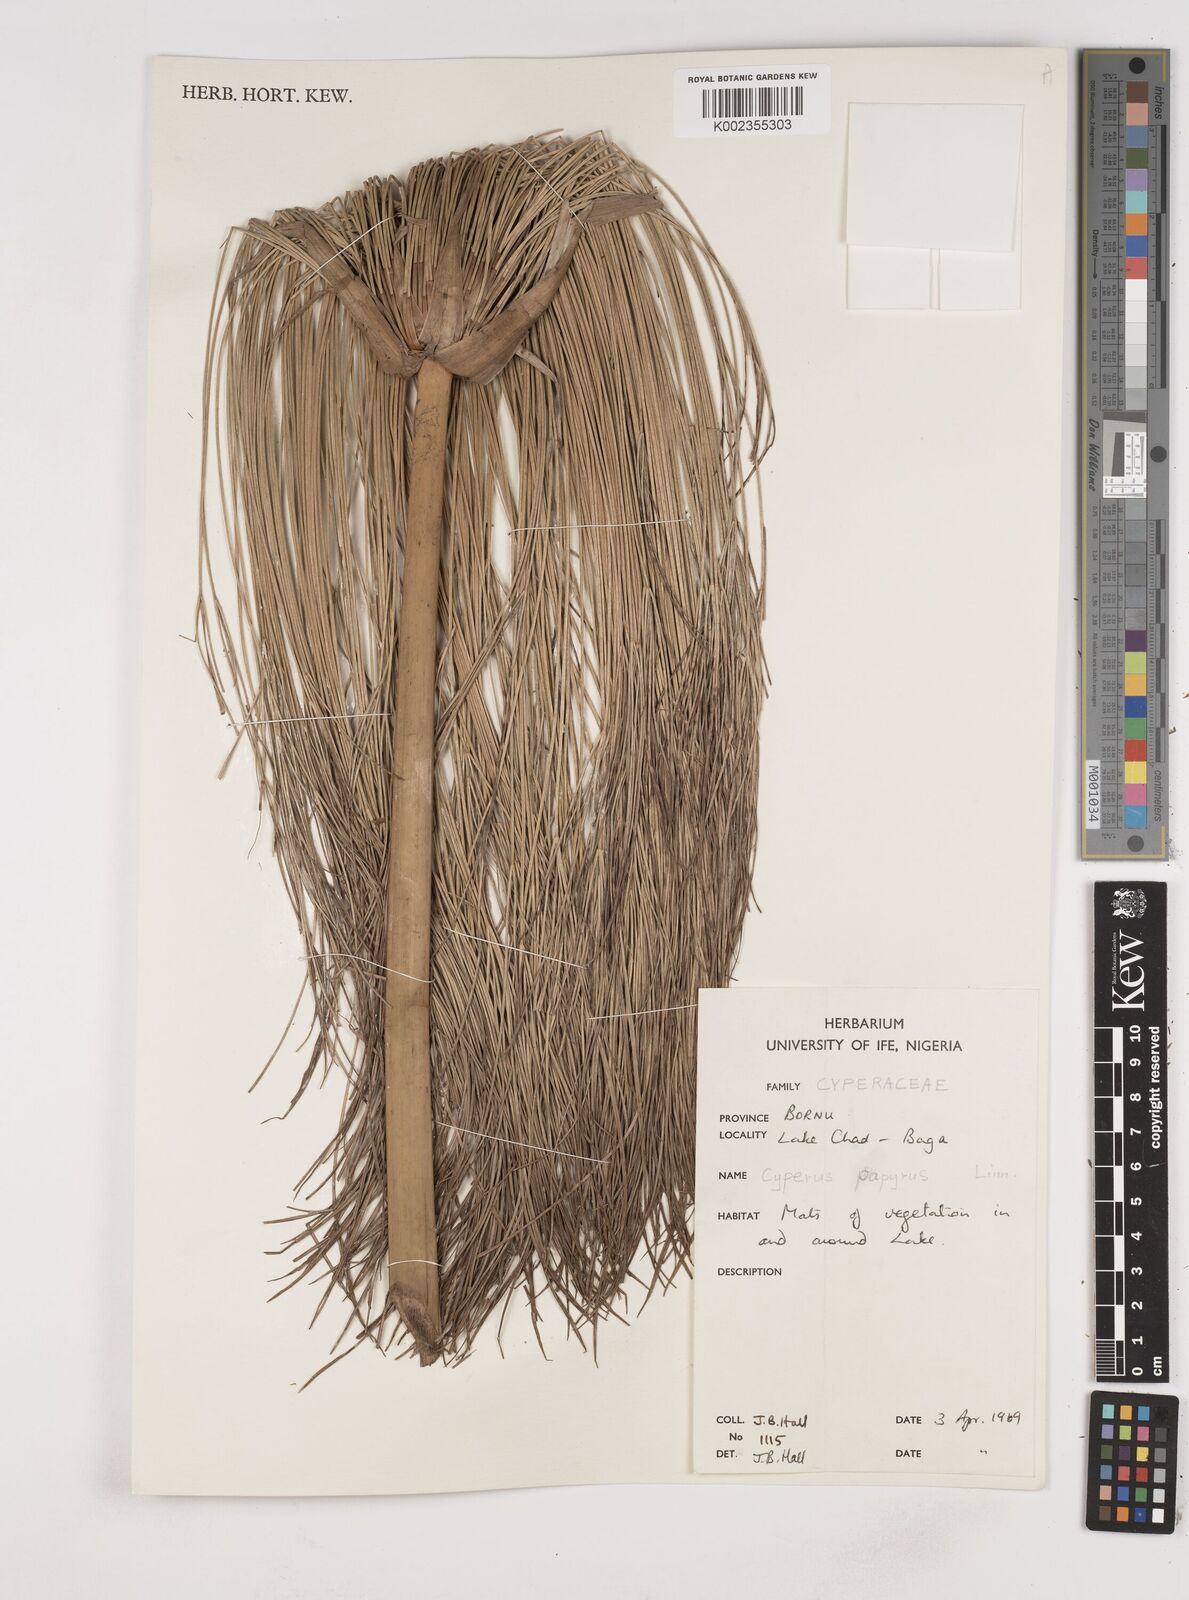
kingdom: Plantae
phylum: Tracheophyta
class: Liliopsida
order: Poales
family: Cyperaceae
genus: Cyperus
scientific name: Cyperus papyrus
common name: Papyrus
